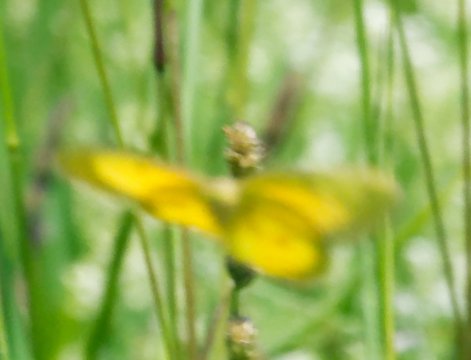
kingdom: Animalia
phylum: Arthropoda
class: Insecta
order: Lepidoptera
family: Pieridae
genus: Colias
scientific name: Colias eurytheme
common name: Orange Sulphur
